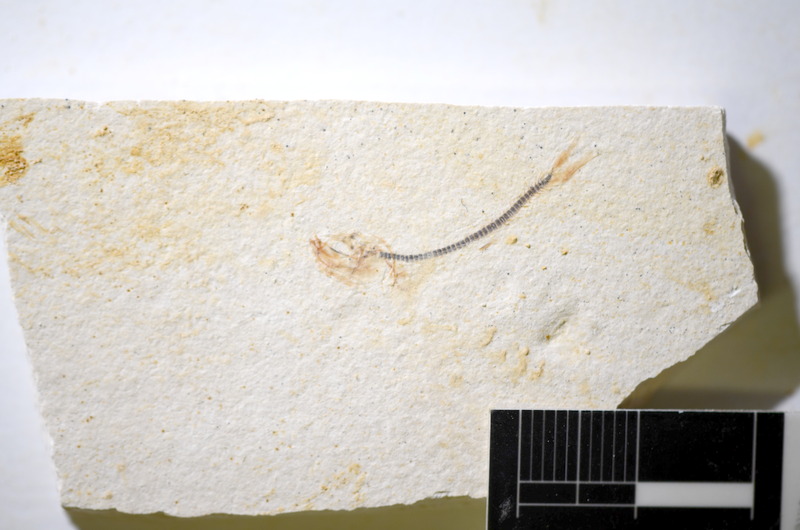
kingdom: Animalia
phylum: Chordata
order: Salmoniformes
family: Orthogonikleithridae
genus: Orthogonikleithrus
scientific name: Orthogonikleithrus hoelli
